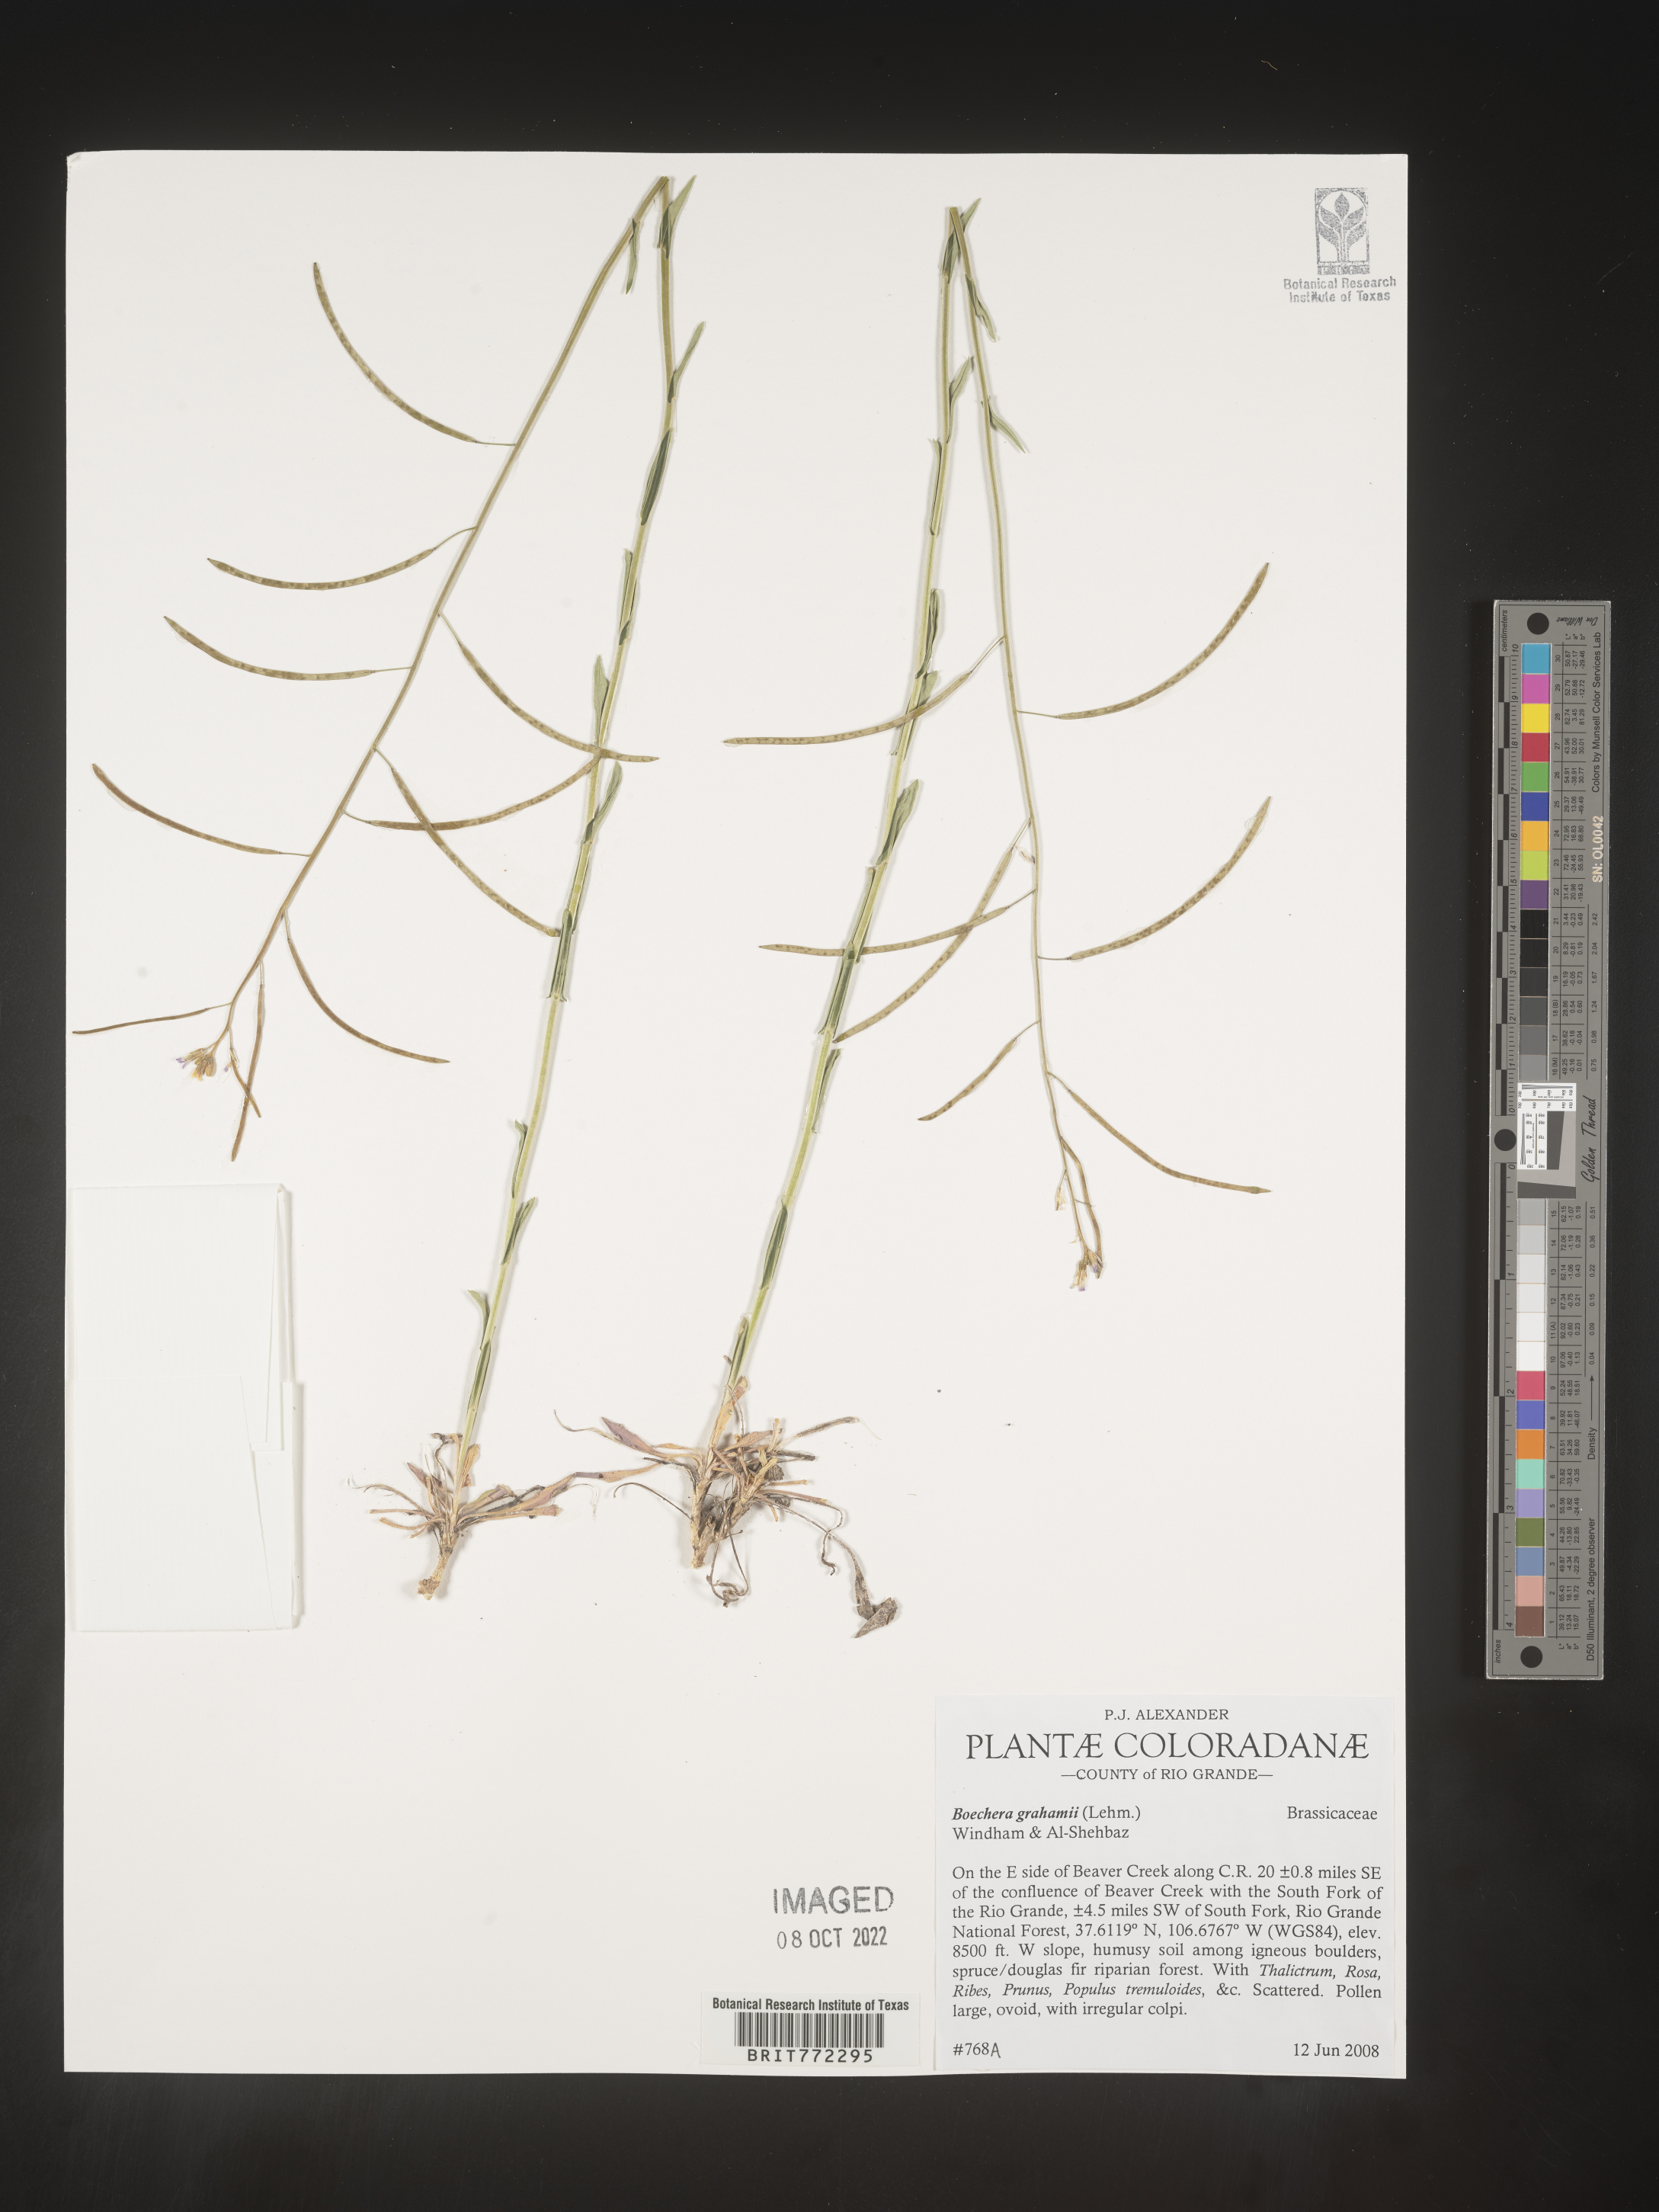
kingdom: Plantae
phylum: Tracheophyta
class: Magnoliopsida
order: Brassicales
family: Brassicaceae
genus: Boechera
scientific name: Boechera
